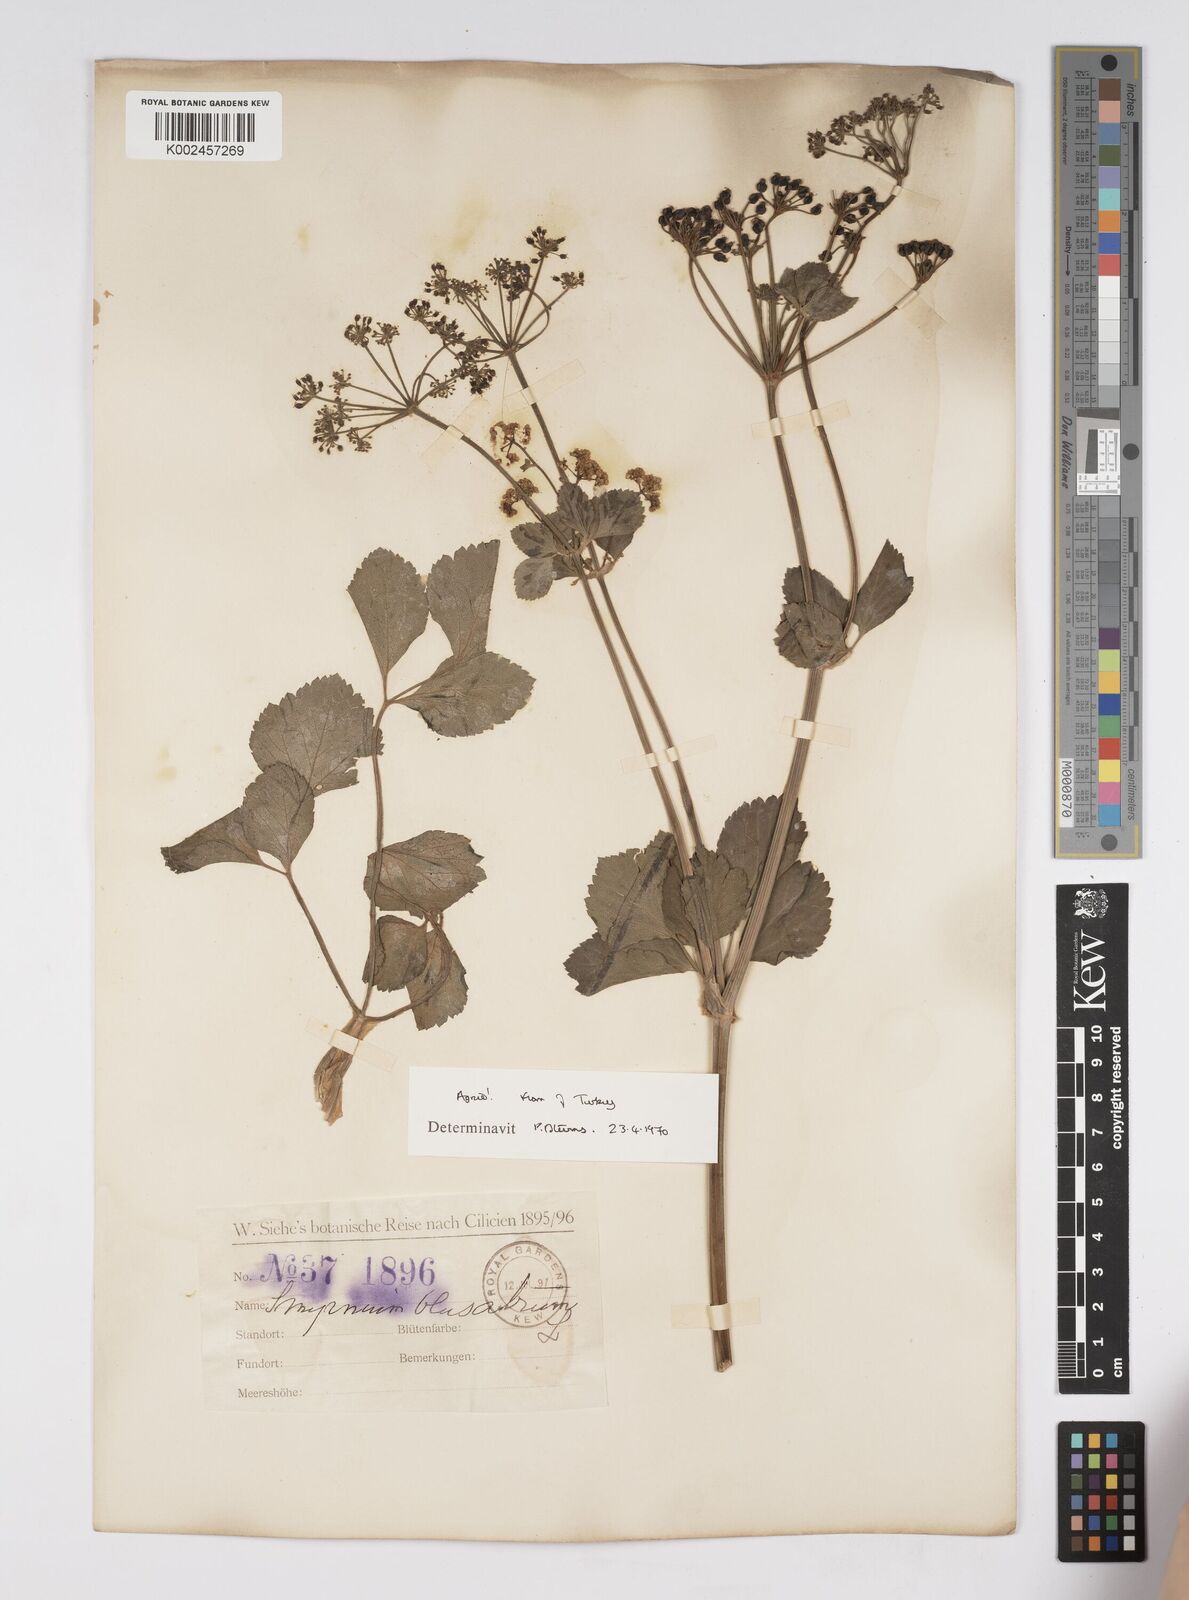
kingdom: Plantae
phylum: Tracheophyta
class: Magnoliopsida
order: Apiales
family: Apiaceae
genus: Smyrnium
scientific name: Smyrnium olusatrum
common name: Alexanders
